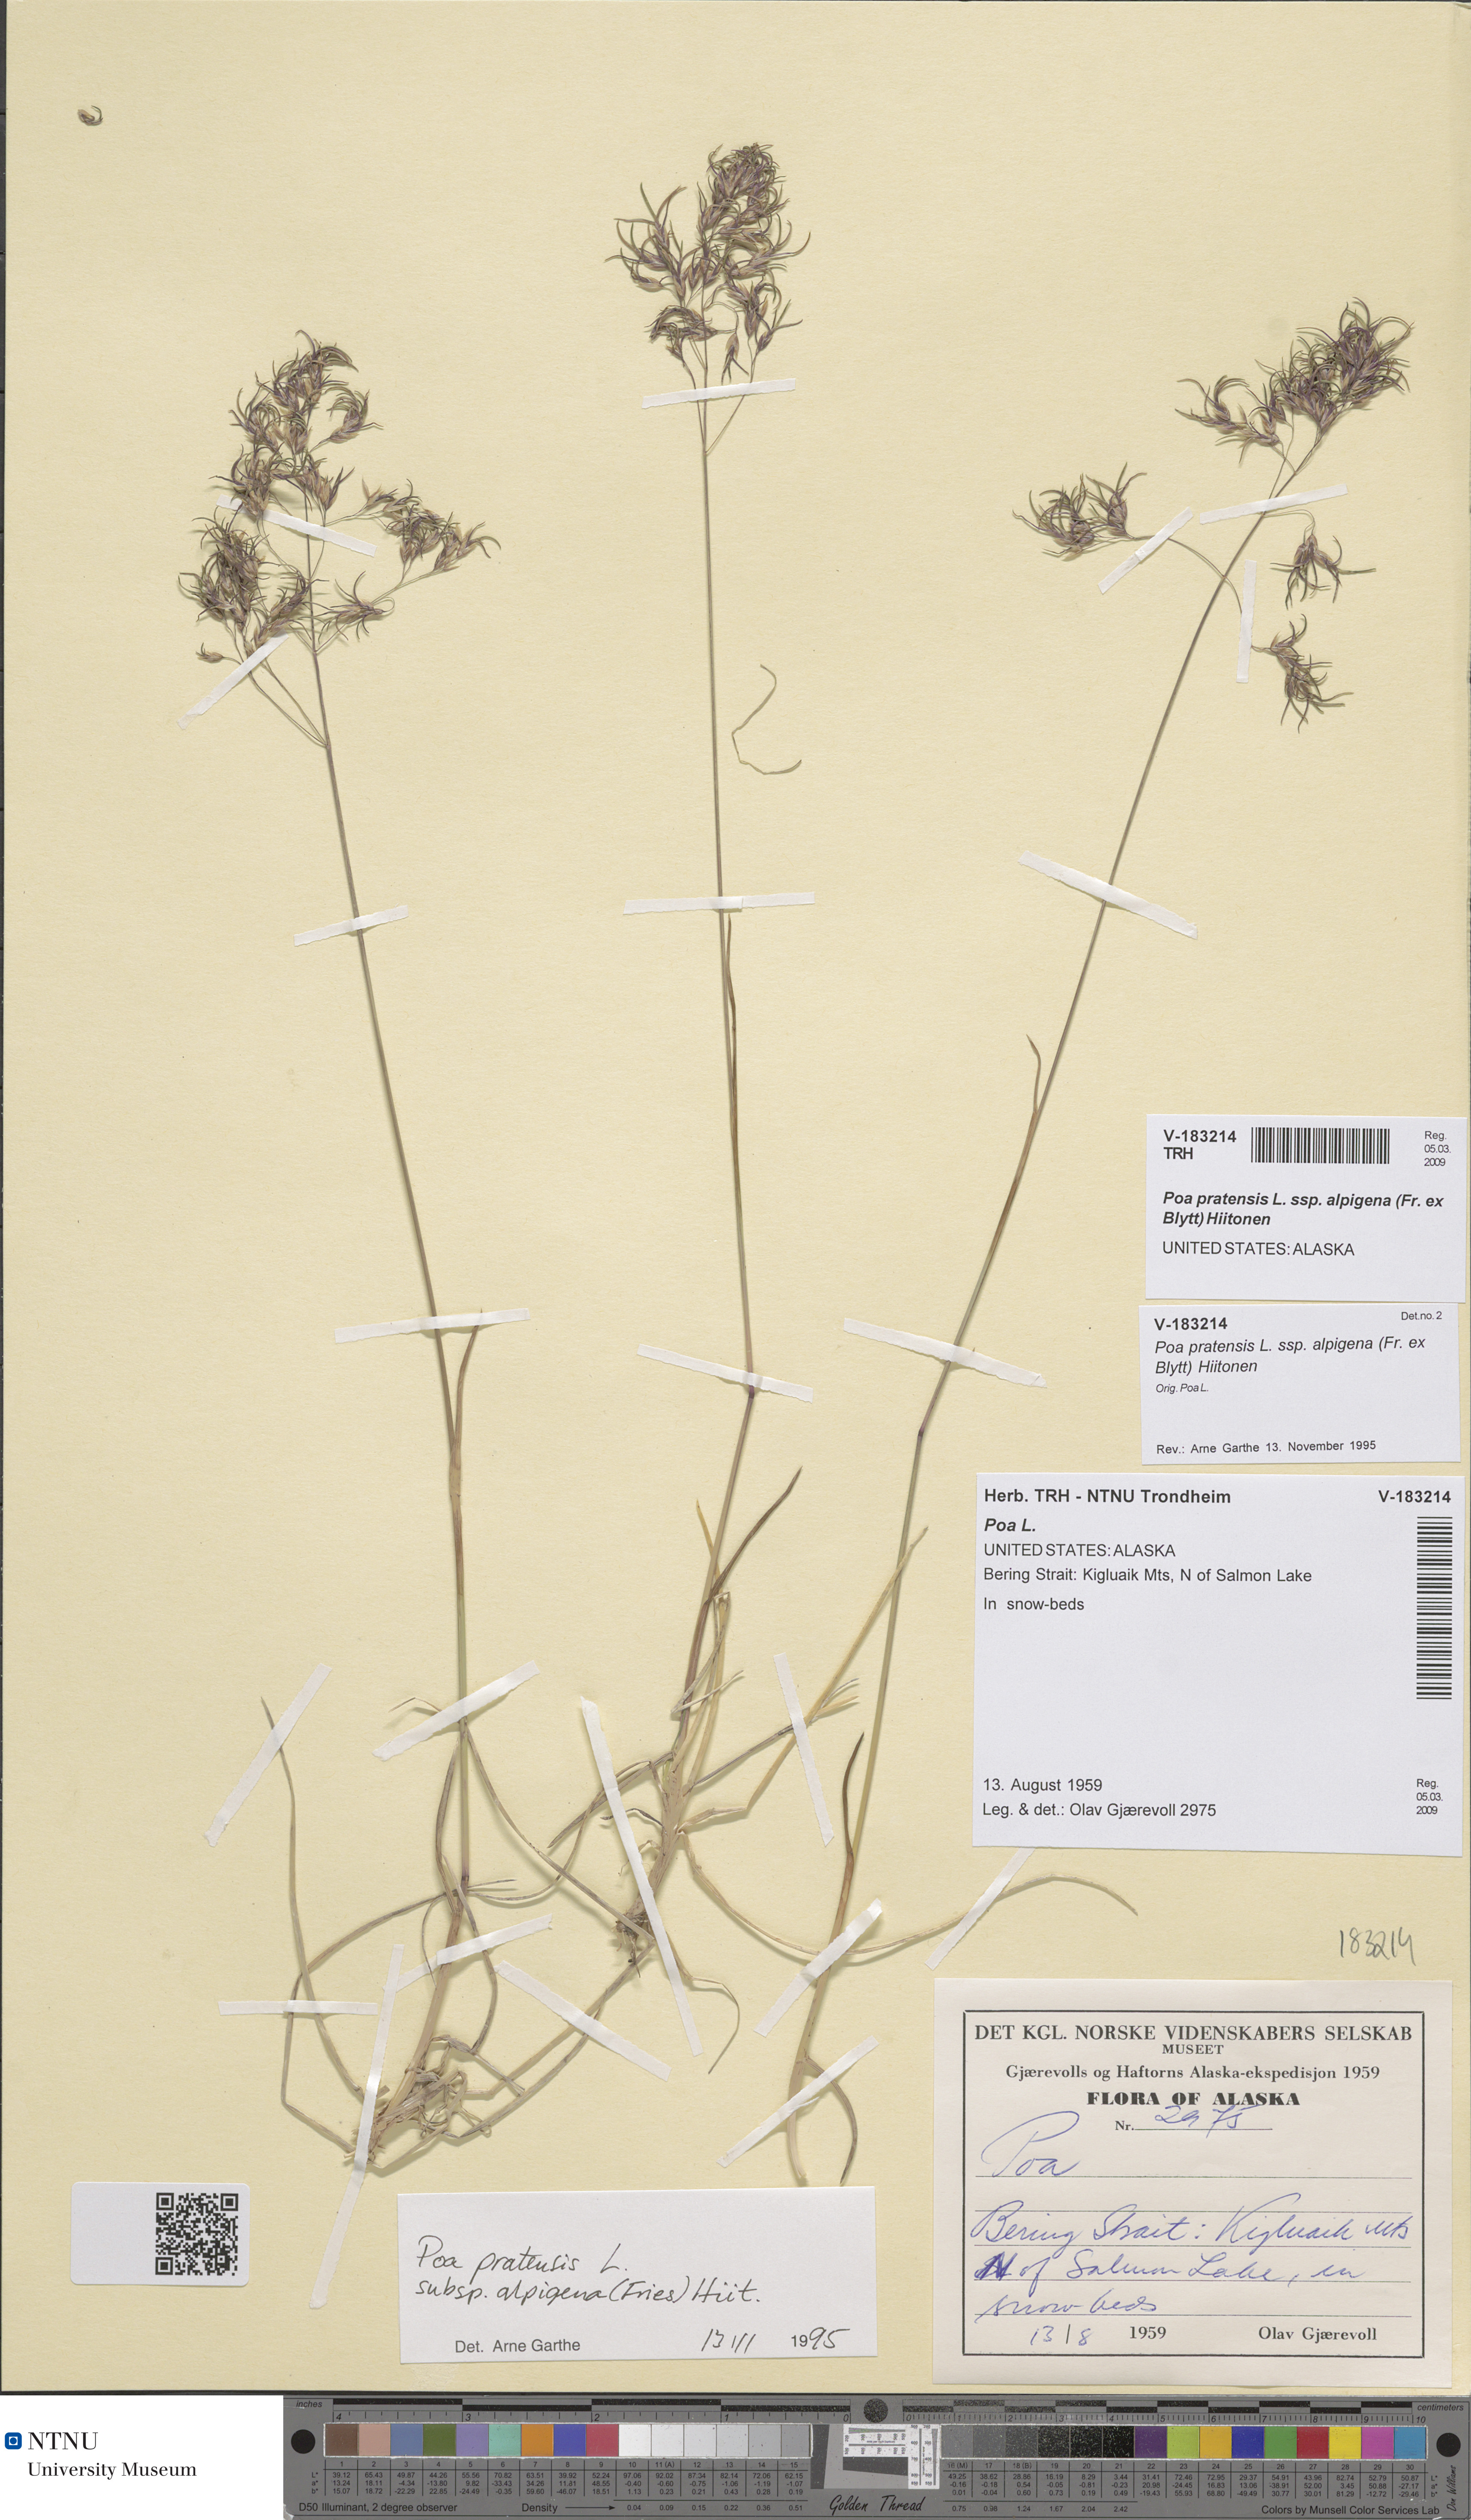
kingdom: Plantae
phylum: Tracheophyta
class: Liliopsida
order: Poales
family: Poaceae
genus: Poa
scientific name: Poa alpigena
